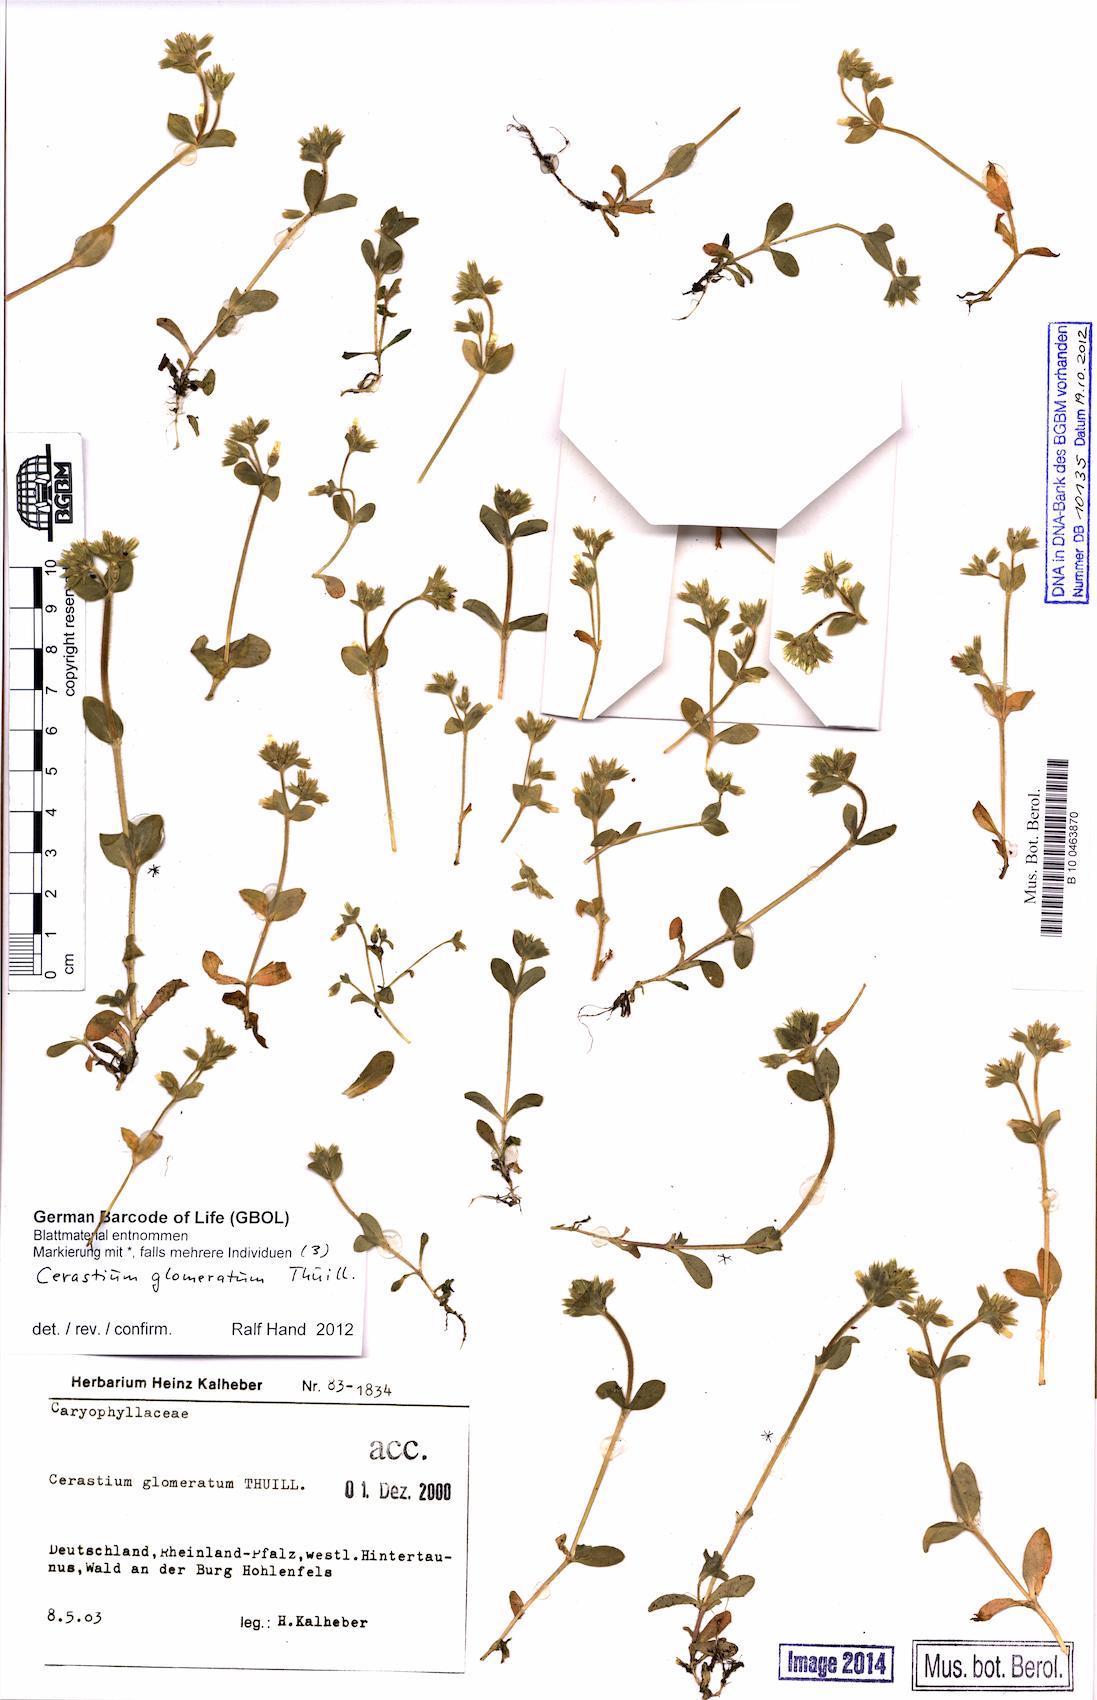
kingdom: Plantae
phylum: Tracheophyta
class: Magnoliopsida
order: Caryophyllales
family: Caryophyllaceae
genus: Cerastium
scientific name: Cerastium glomeratum
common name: Sticky chickweed
